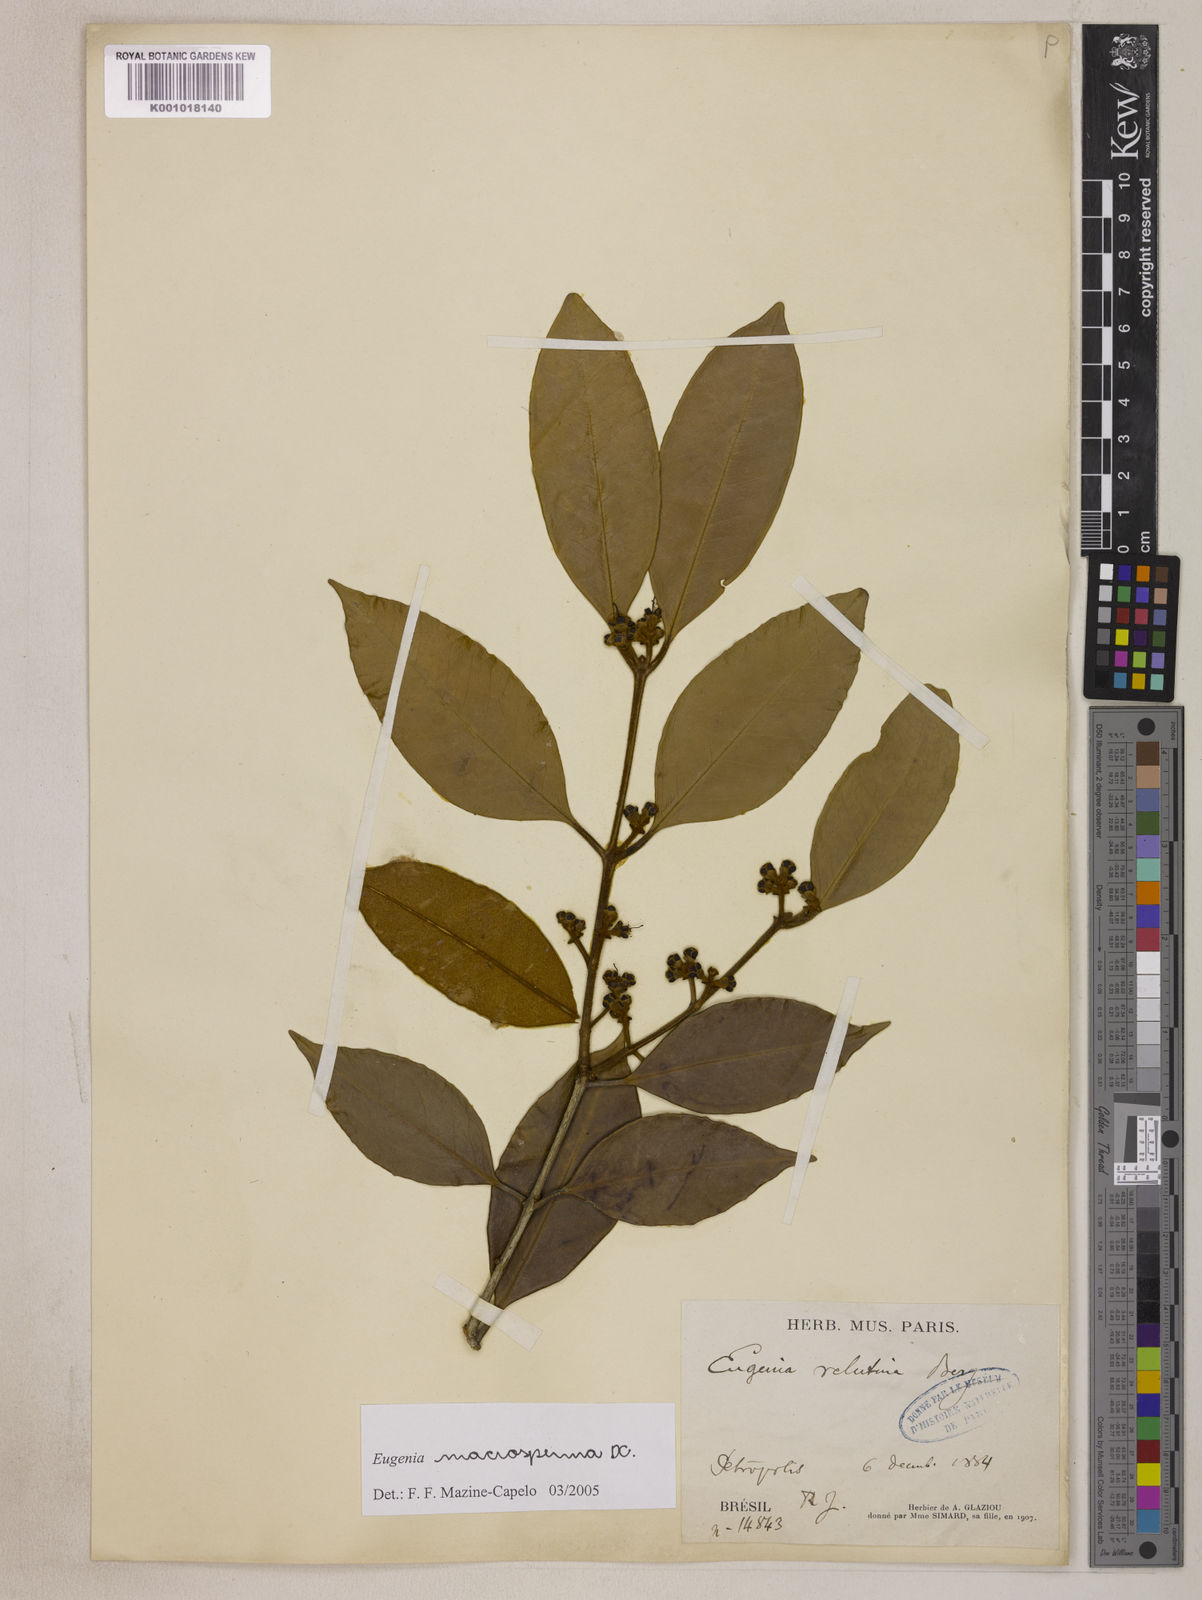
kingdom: Plantae
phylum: Tracheophyta
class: Magnoliopsida
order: Myrtales
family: Myrtaceae
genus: Eugenia
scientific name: Eugenia macrosperma
